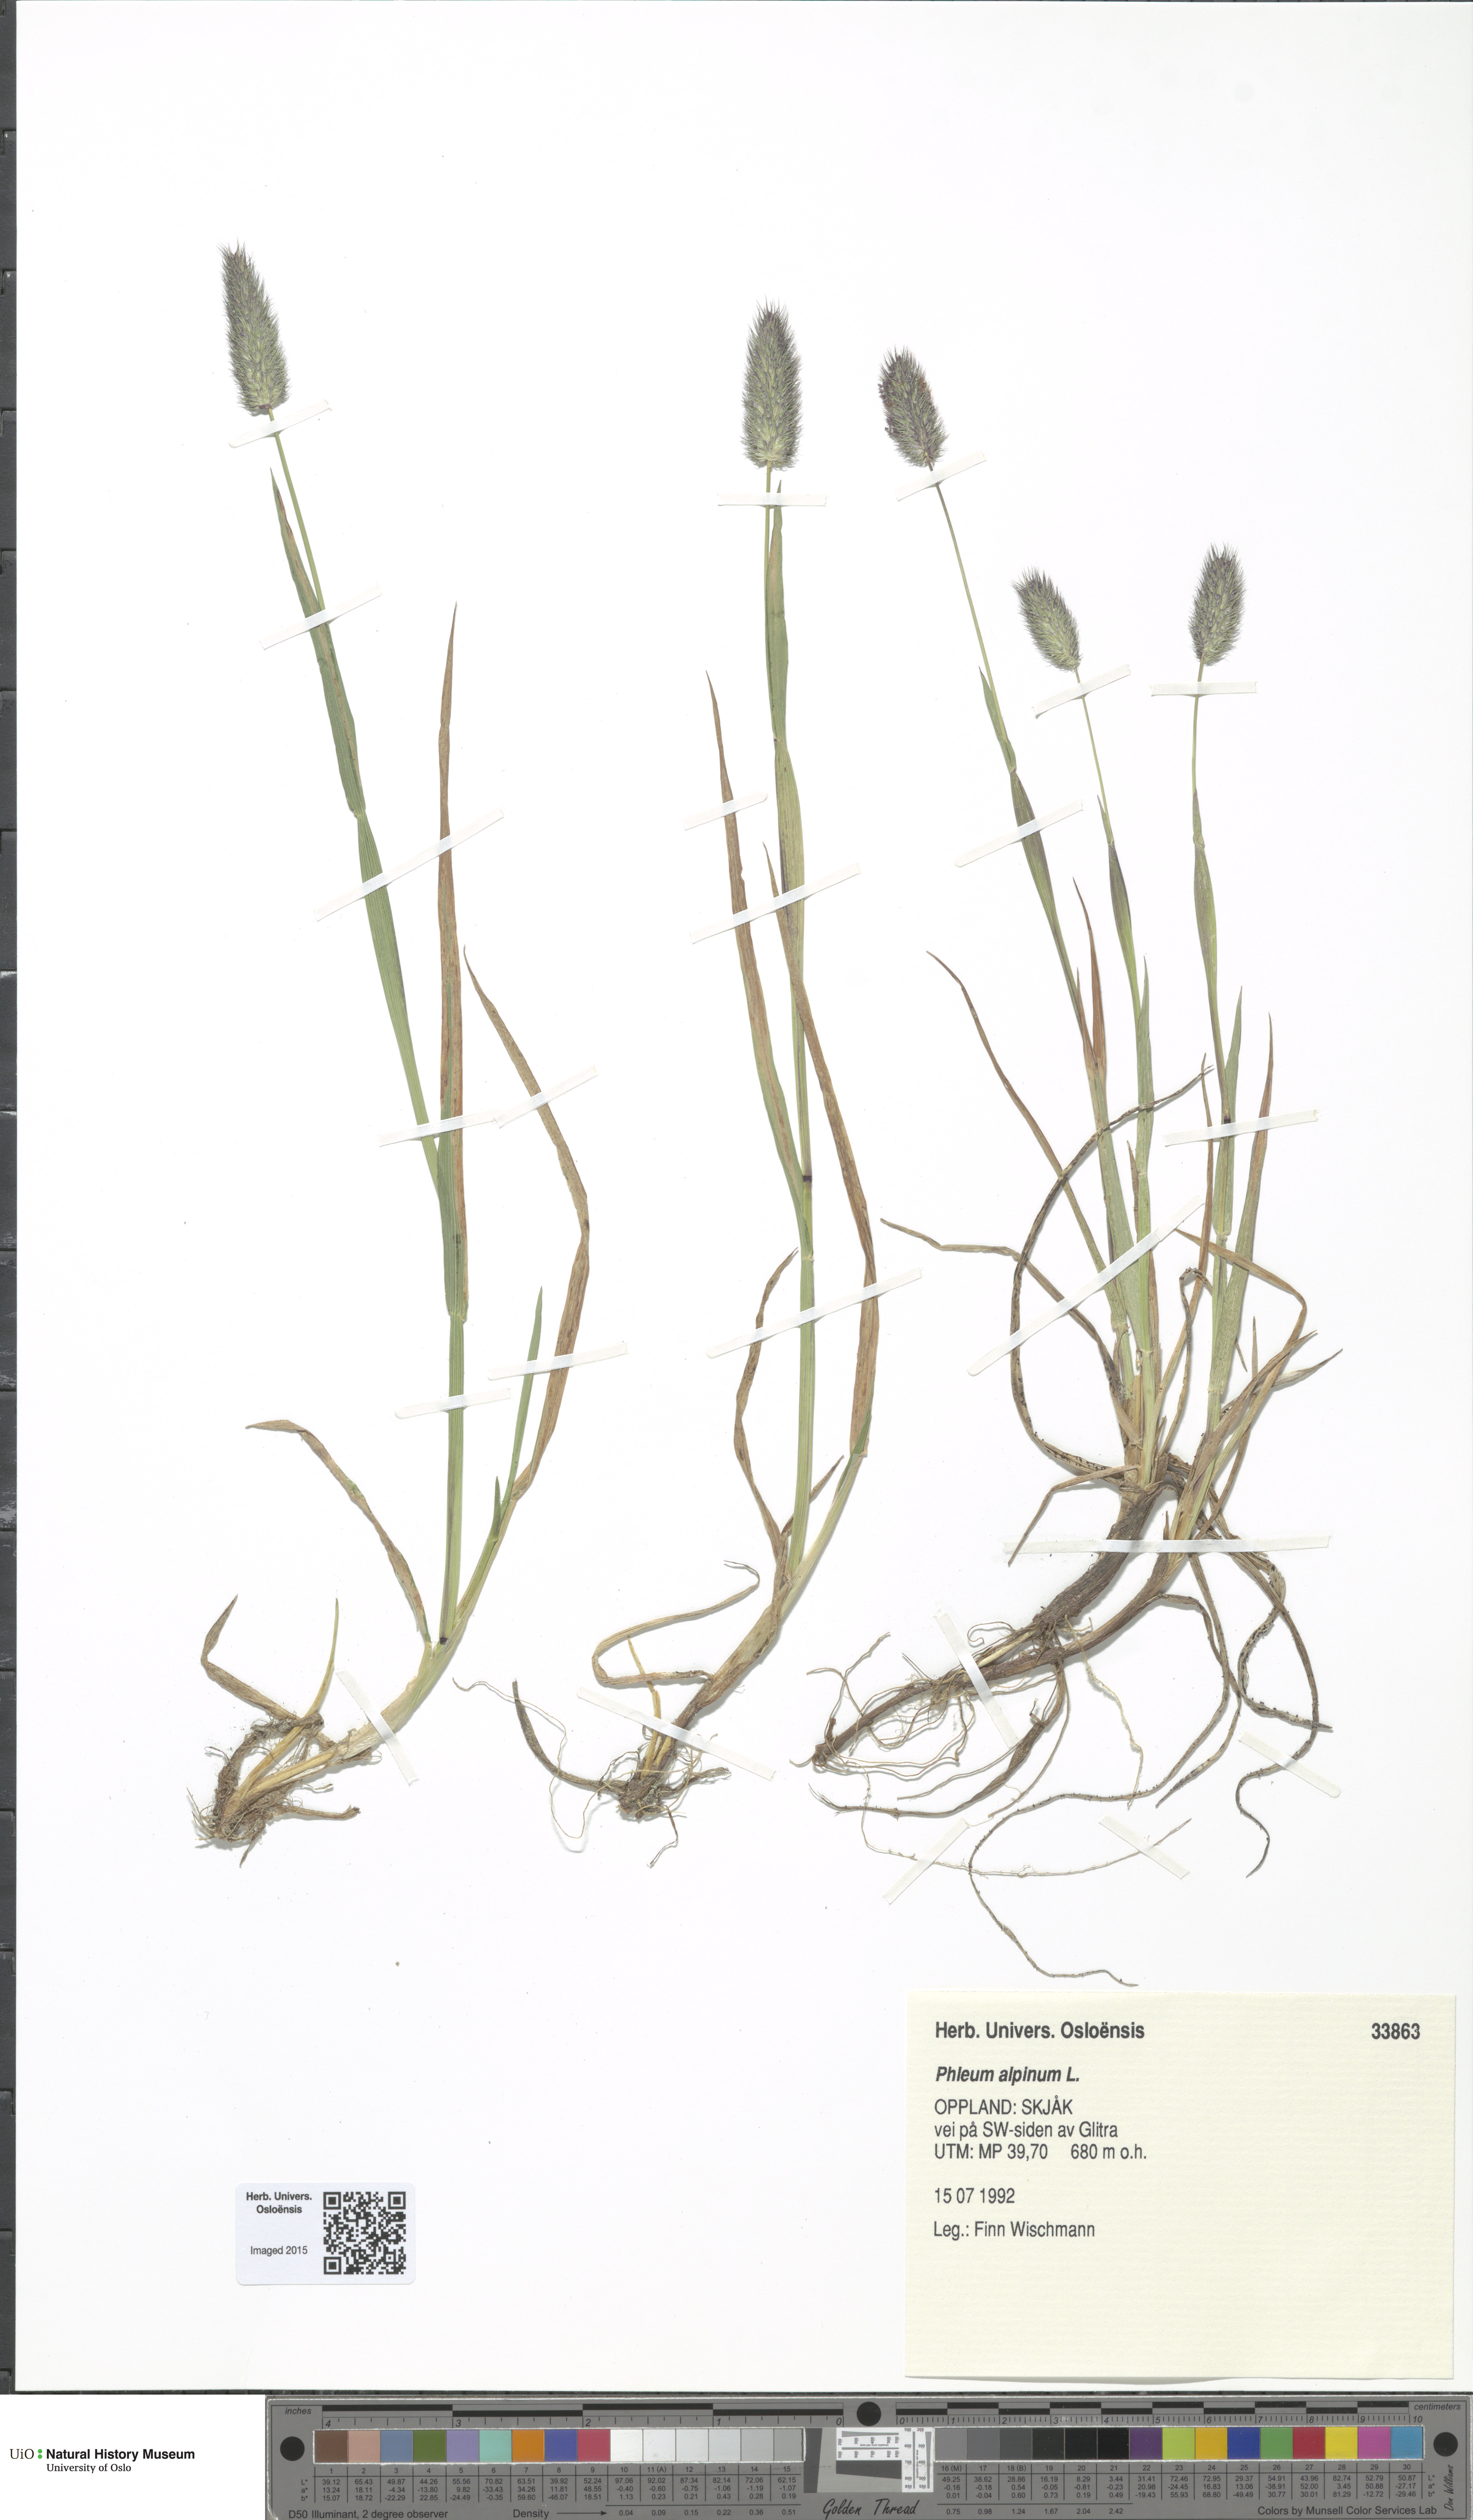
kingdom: Plantae
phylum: Tracheophyta
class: Liliopsida
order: Poales
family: Poaceae
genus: Phleum
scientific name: Phleum alpinum
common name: Alpine cat's-tail
